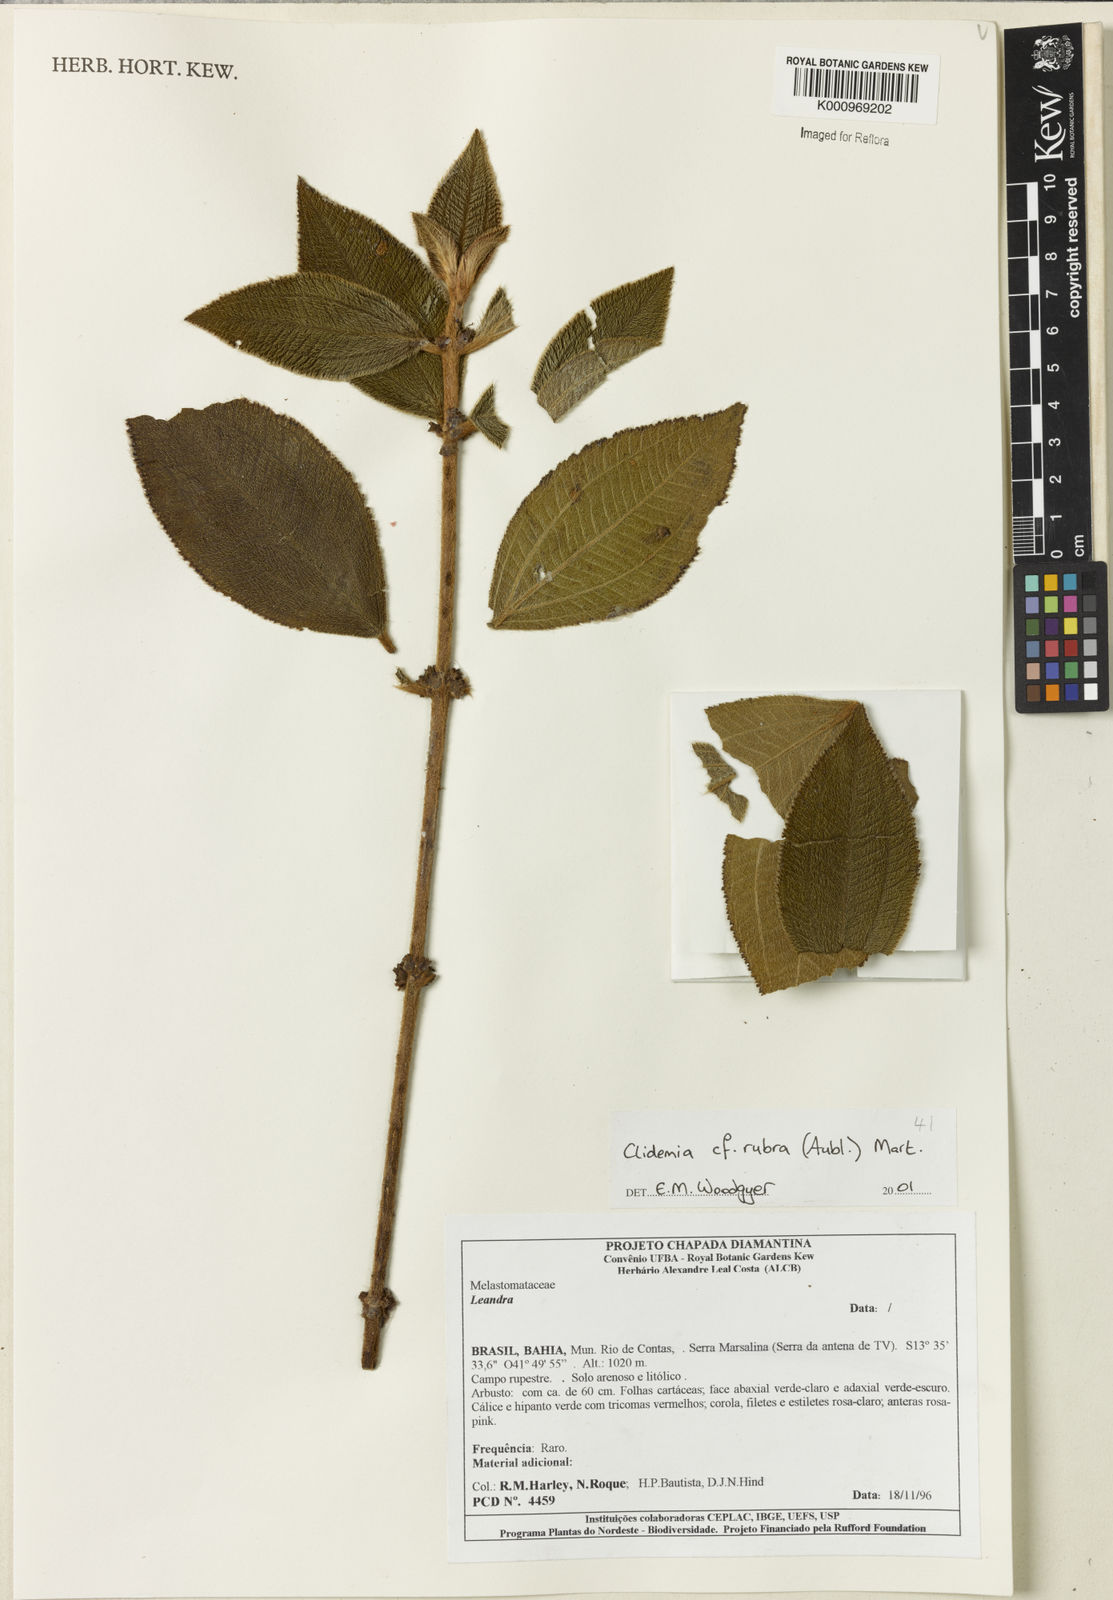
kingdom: Plantae
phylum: Tracheophyta
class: Magnoliopsida
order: Myrtales
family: Melastomataceae
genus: Miconia
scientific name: Miconia rubra
